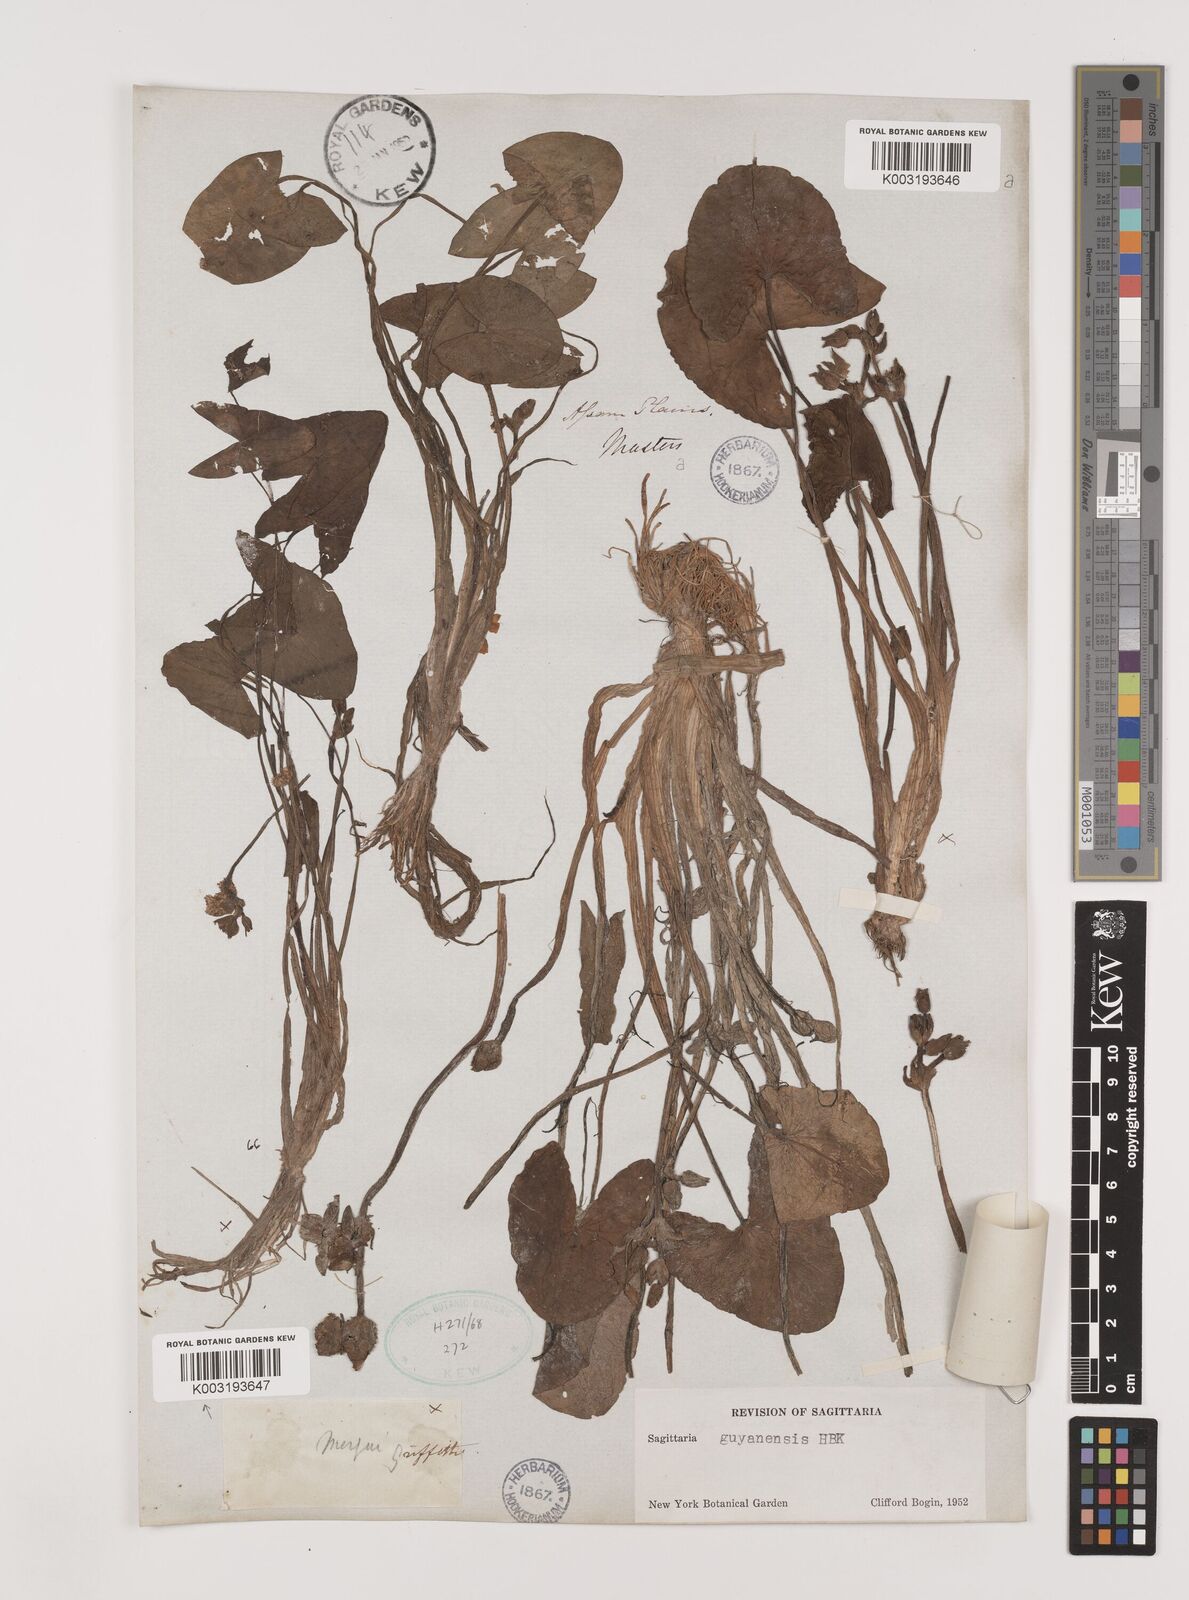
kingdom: Plantae
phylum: Tracheophyta
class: Liliopsida
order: Alismatales
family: Alismataceae
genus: Sagittaria
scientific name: Sagittaria guayanensis
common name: Guyanese arrowhead
